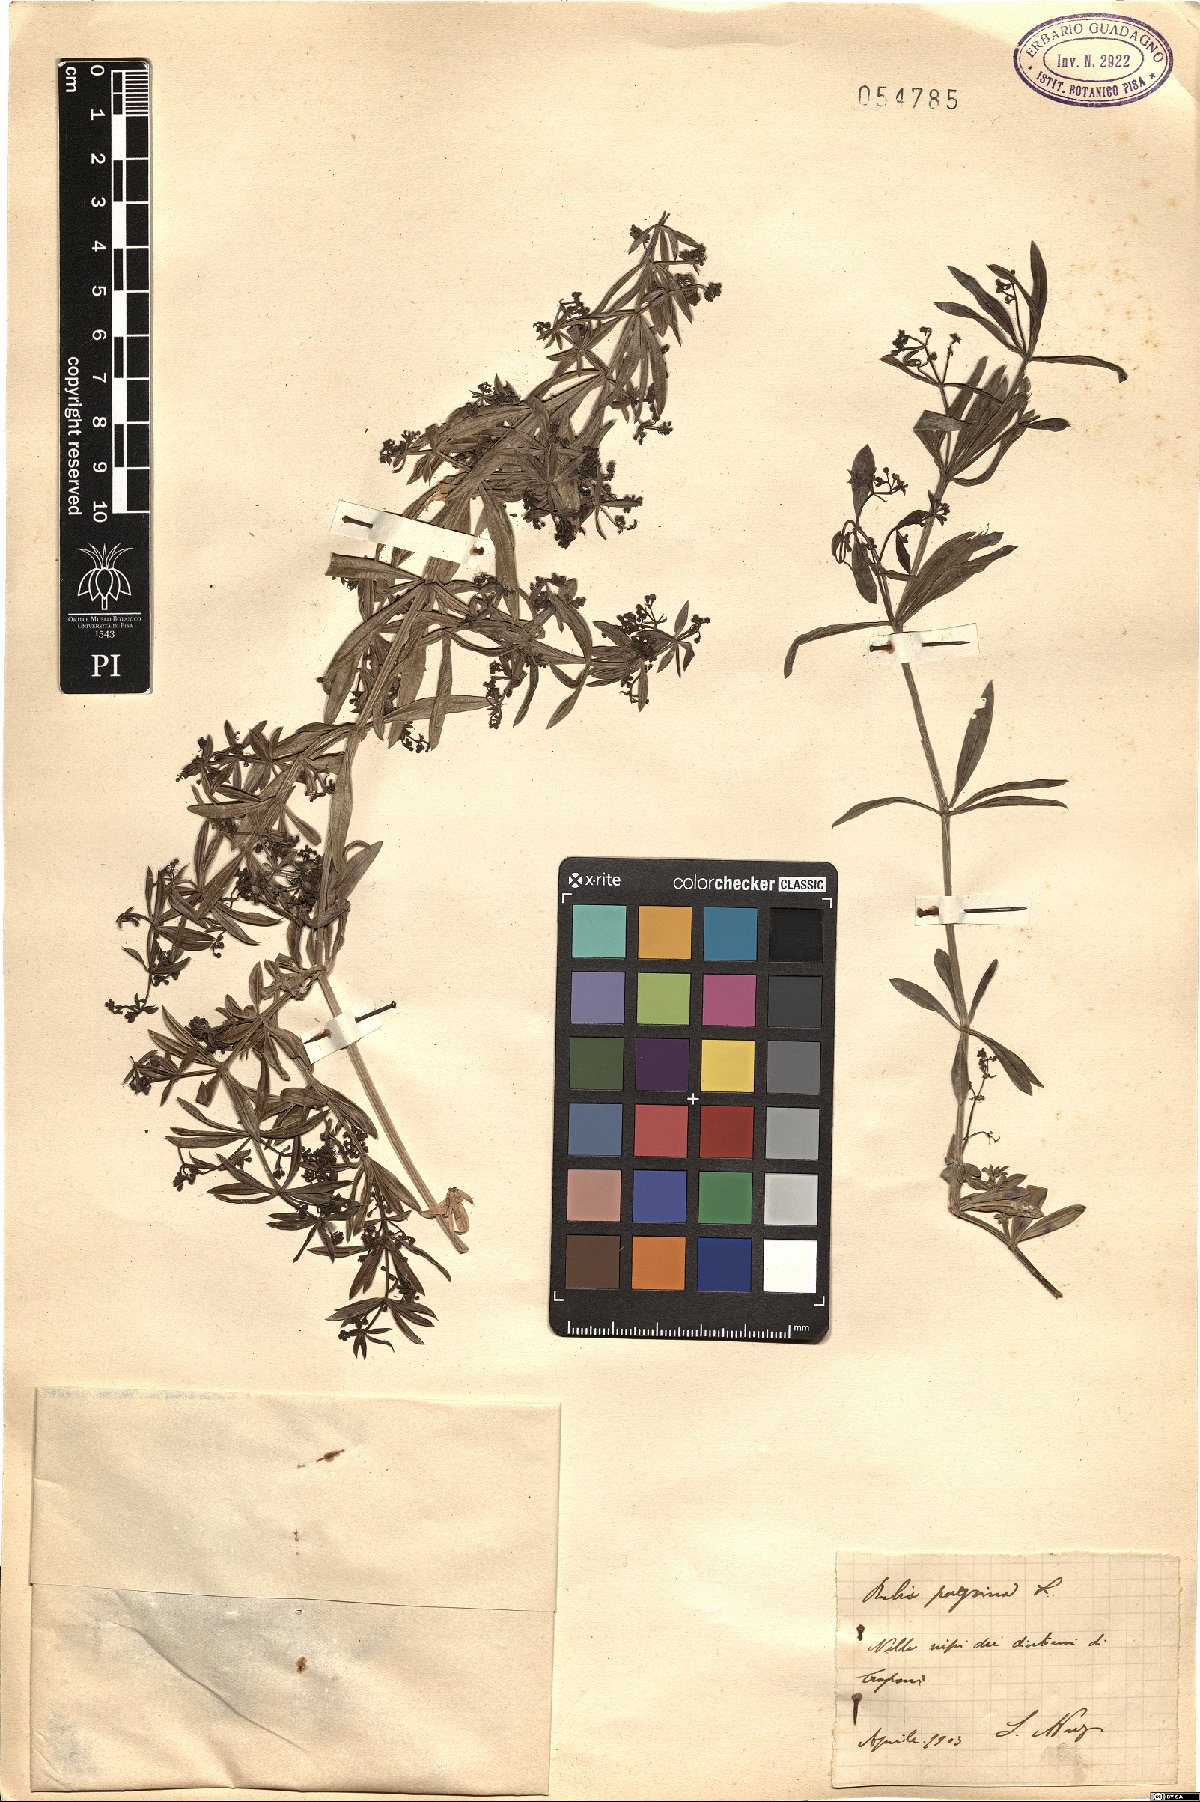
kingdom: Plantae
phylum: Tracheophyta
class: Magnoliopsida
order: Gentianales
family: Rubiaceae
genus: Rubia
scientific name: Rubia peregrina
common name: Wild madder
